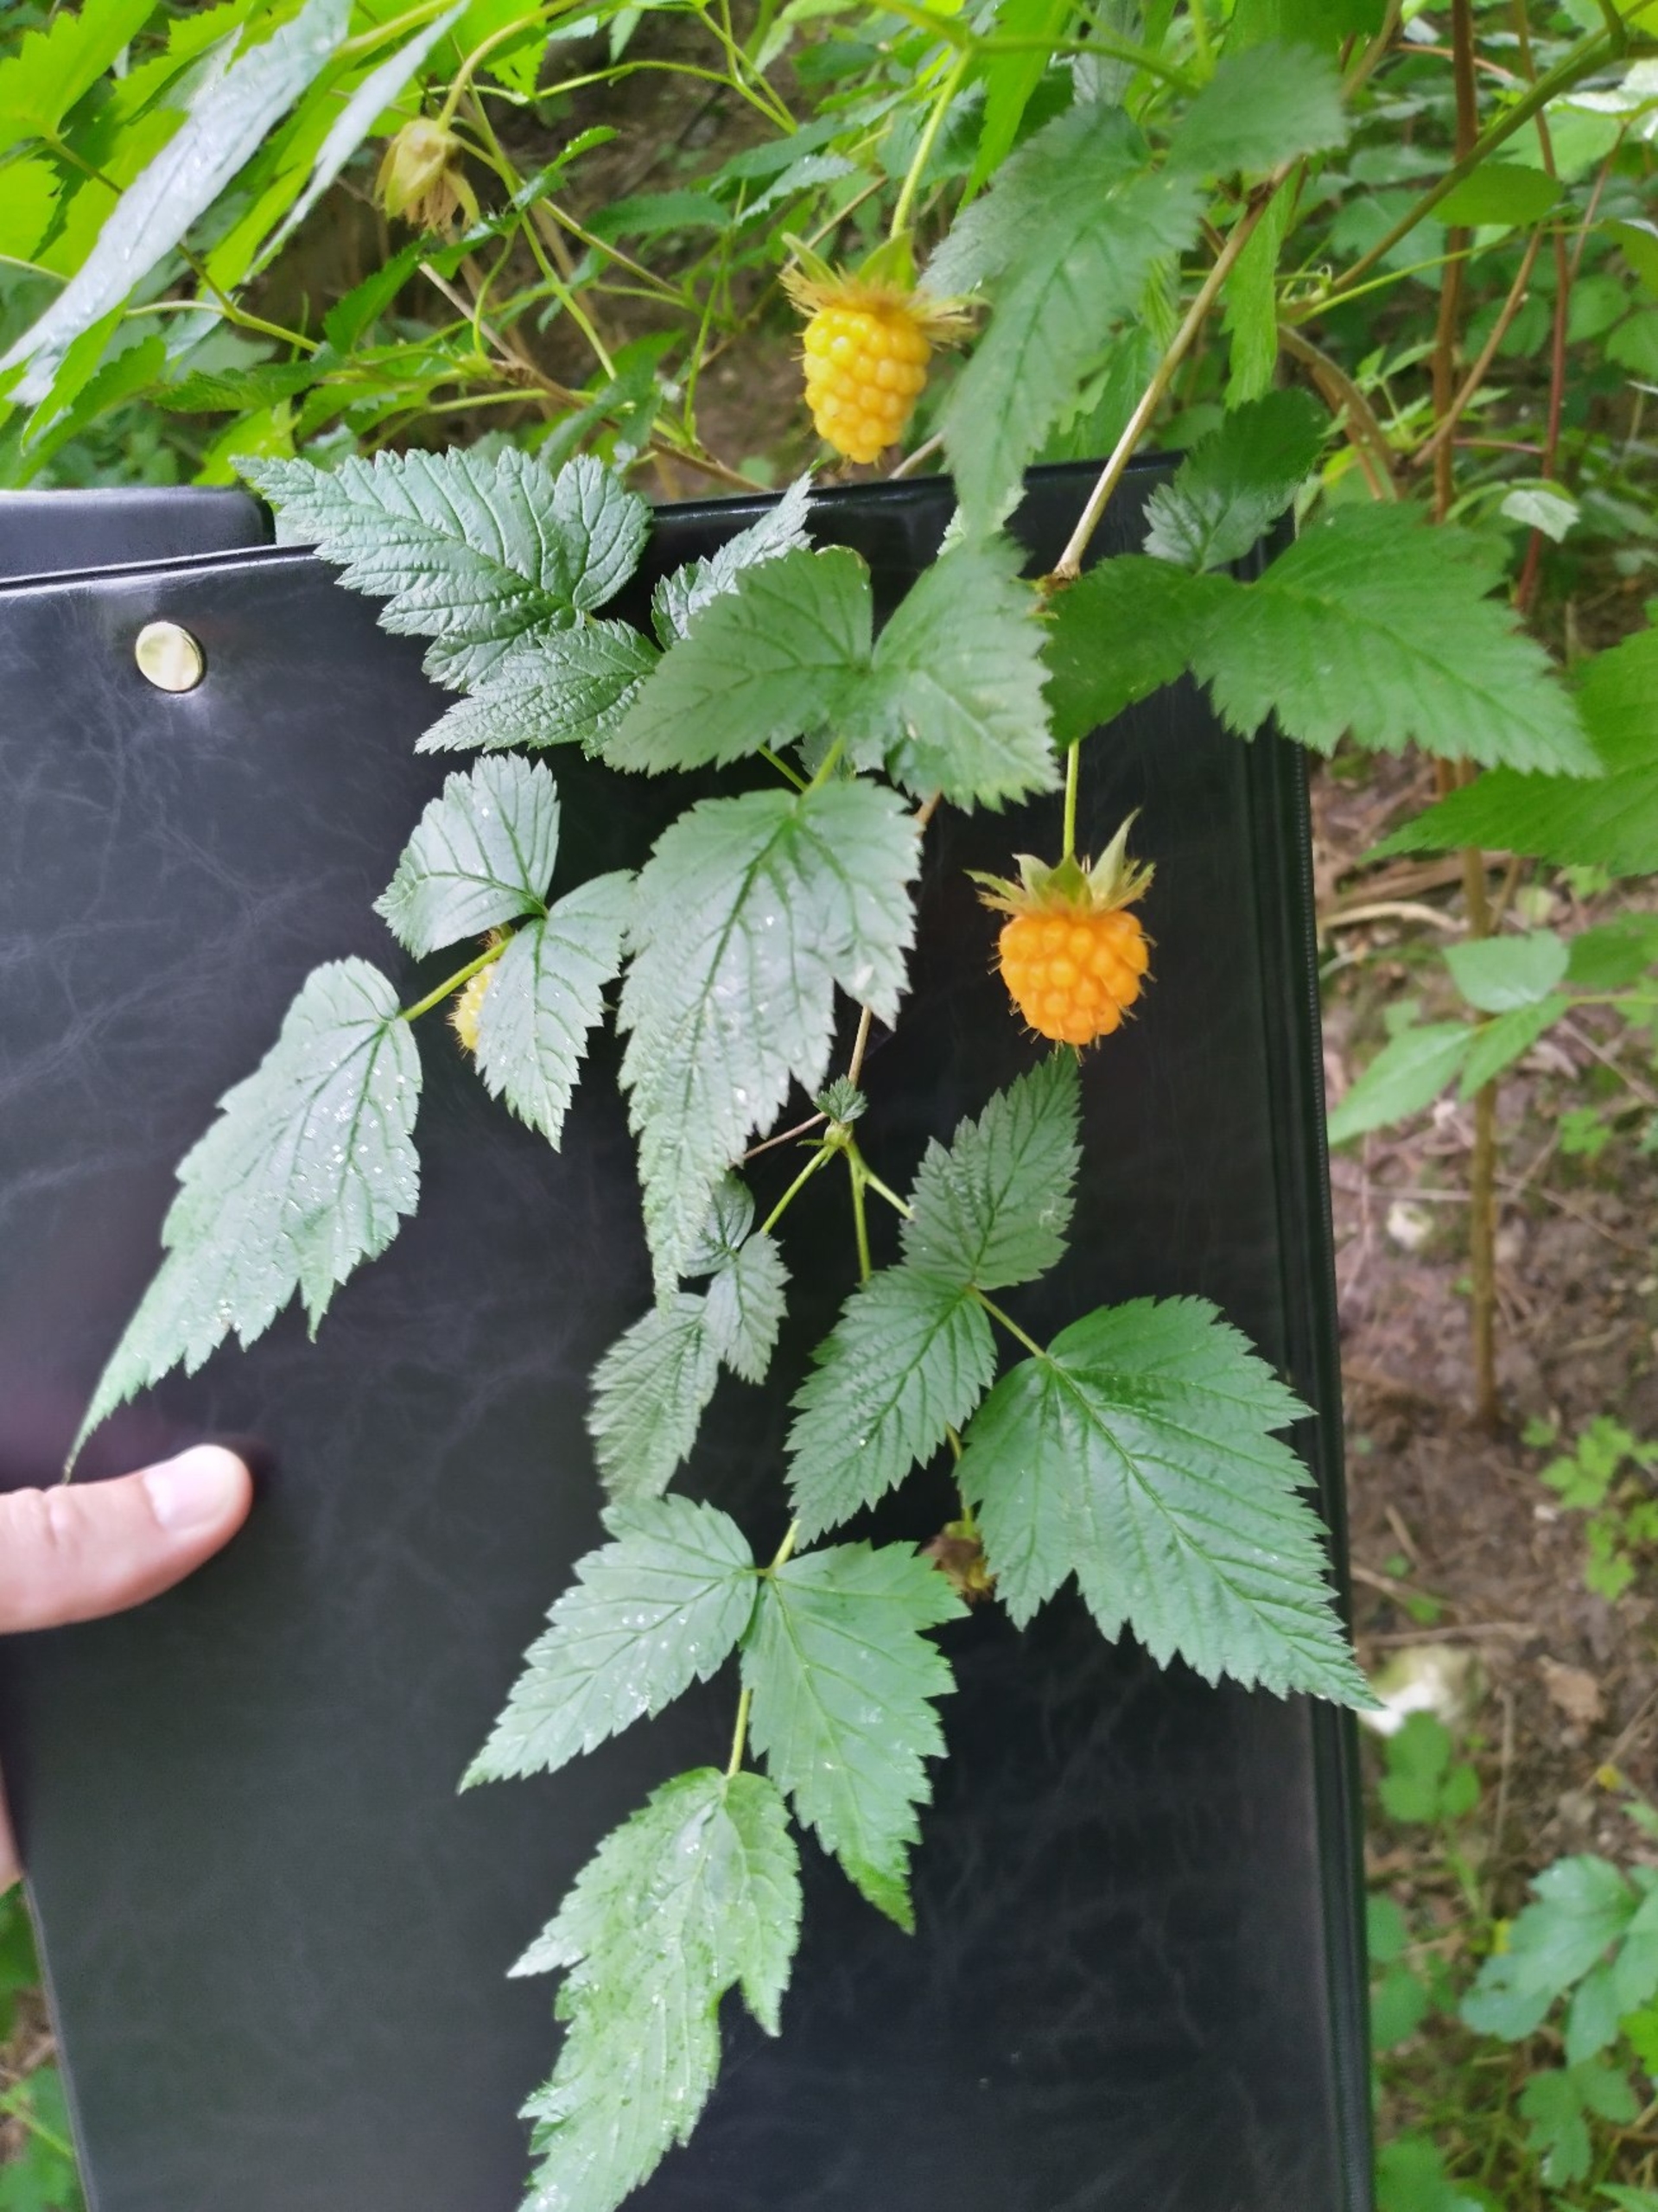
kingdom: Plantae
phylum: Tracheophyta
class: Magnoliopsida
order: Rosales
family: Rosaceae
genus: Rubus
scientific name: Rubus spectabilis
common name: Laksebær
